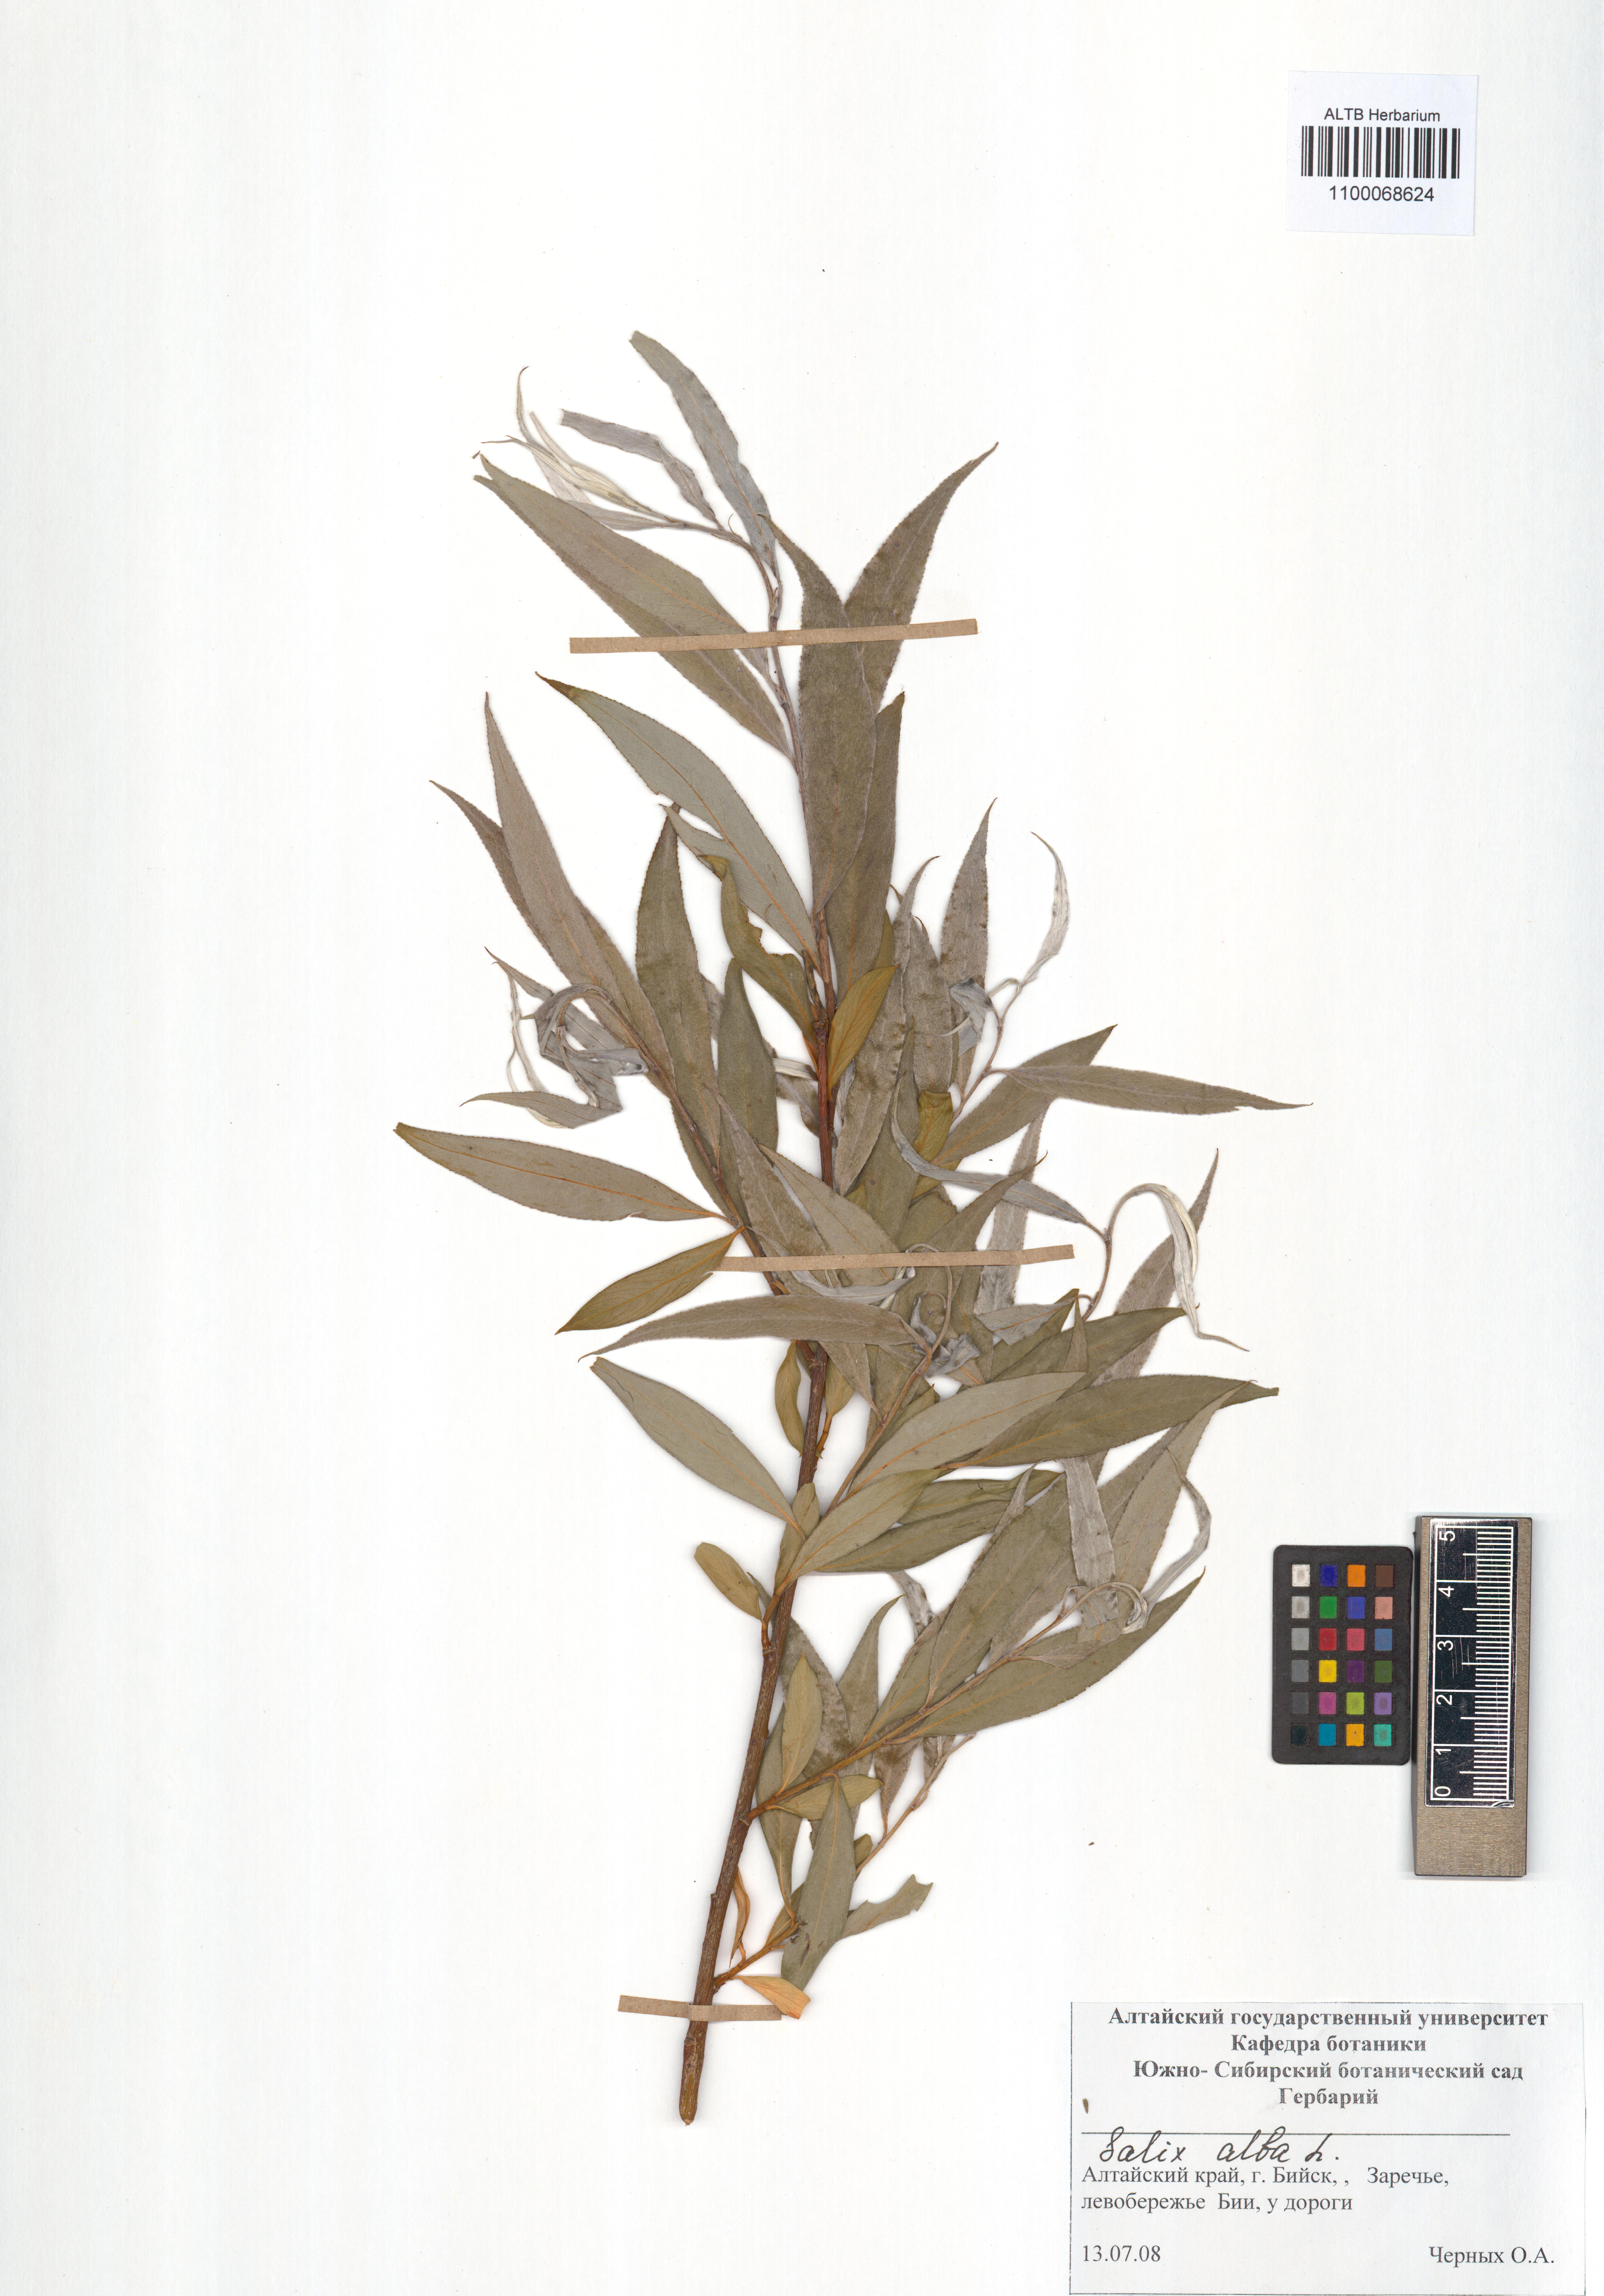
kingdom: Plantae
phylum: Tracheophyta
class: Magnoliopsida
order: Malpighiales
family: Salicaceae
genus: Salix
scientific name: Salix alba
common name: White willow
